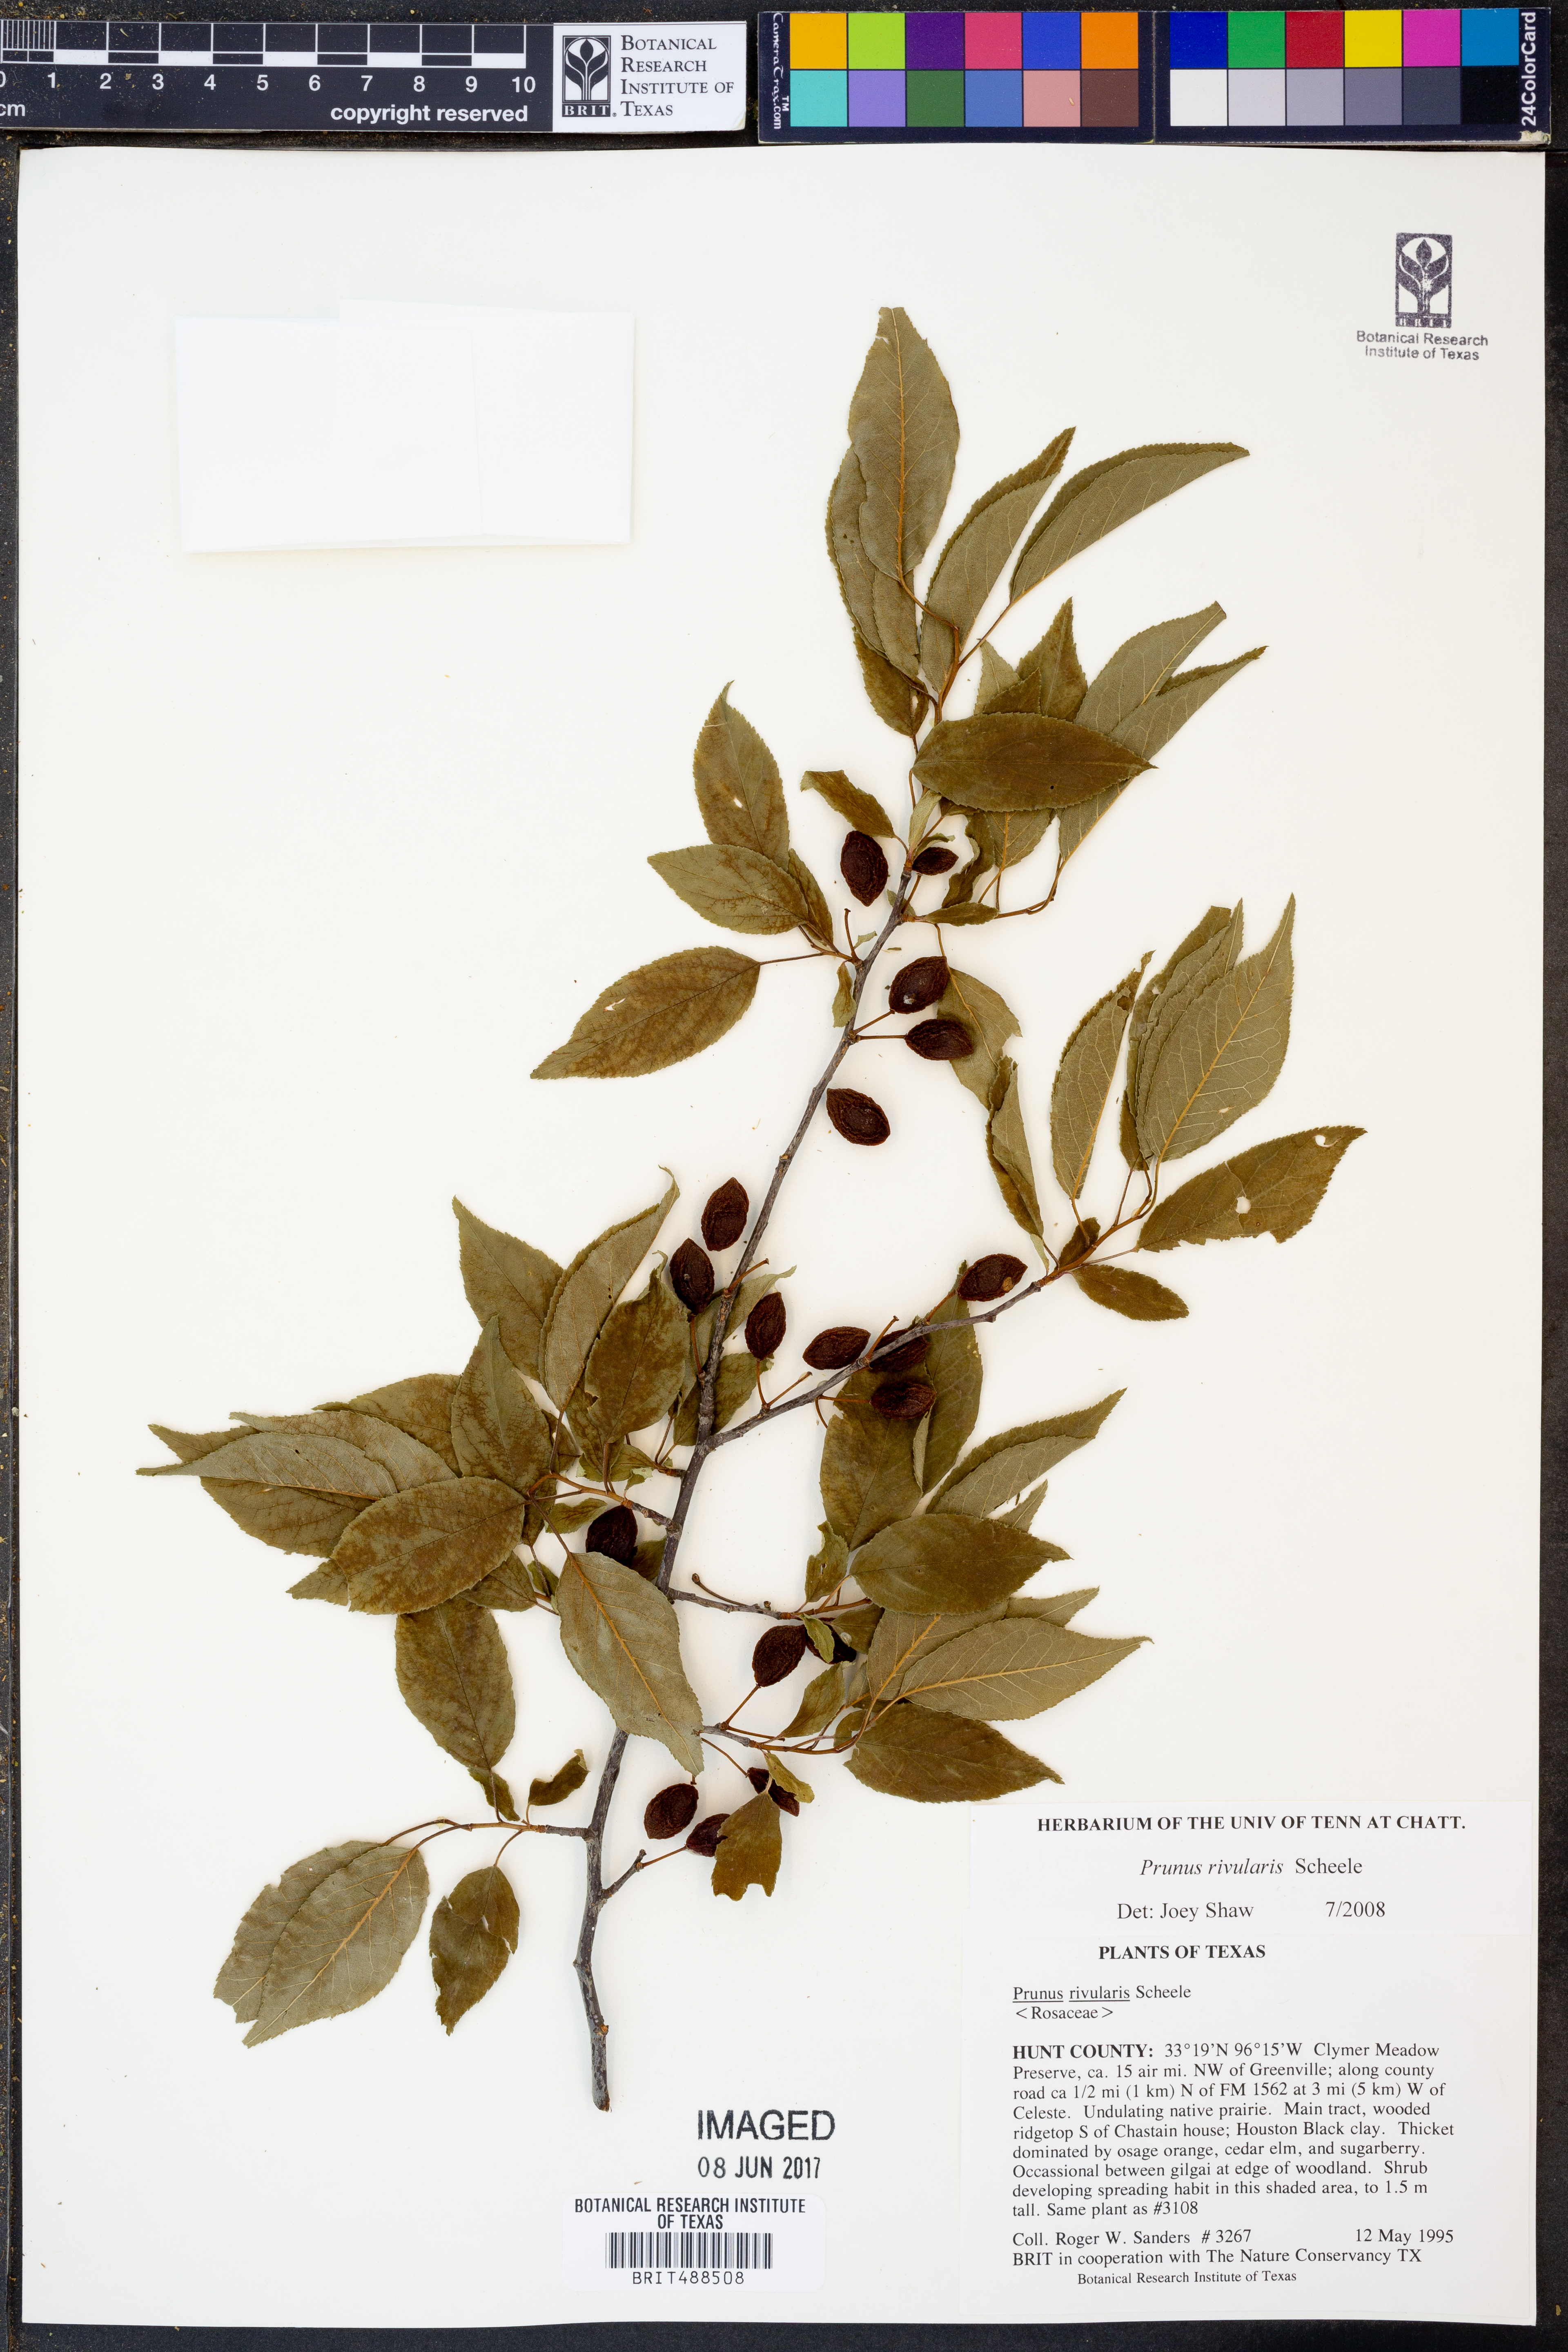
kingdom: Plantae
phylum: Tracheophyta
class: Magnoliopsida
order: Rosales
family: Rosaceae
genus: Prunus
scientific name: Prunus rivularis
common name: Creek plum
